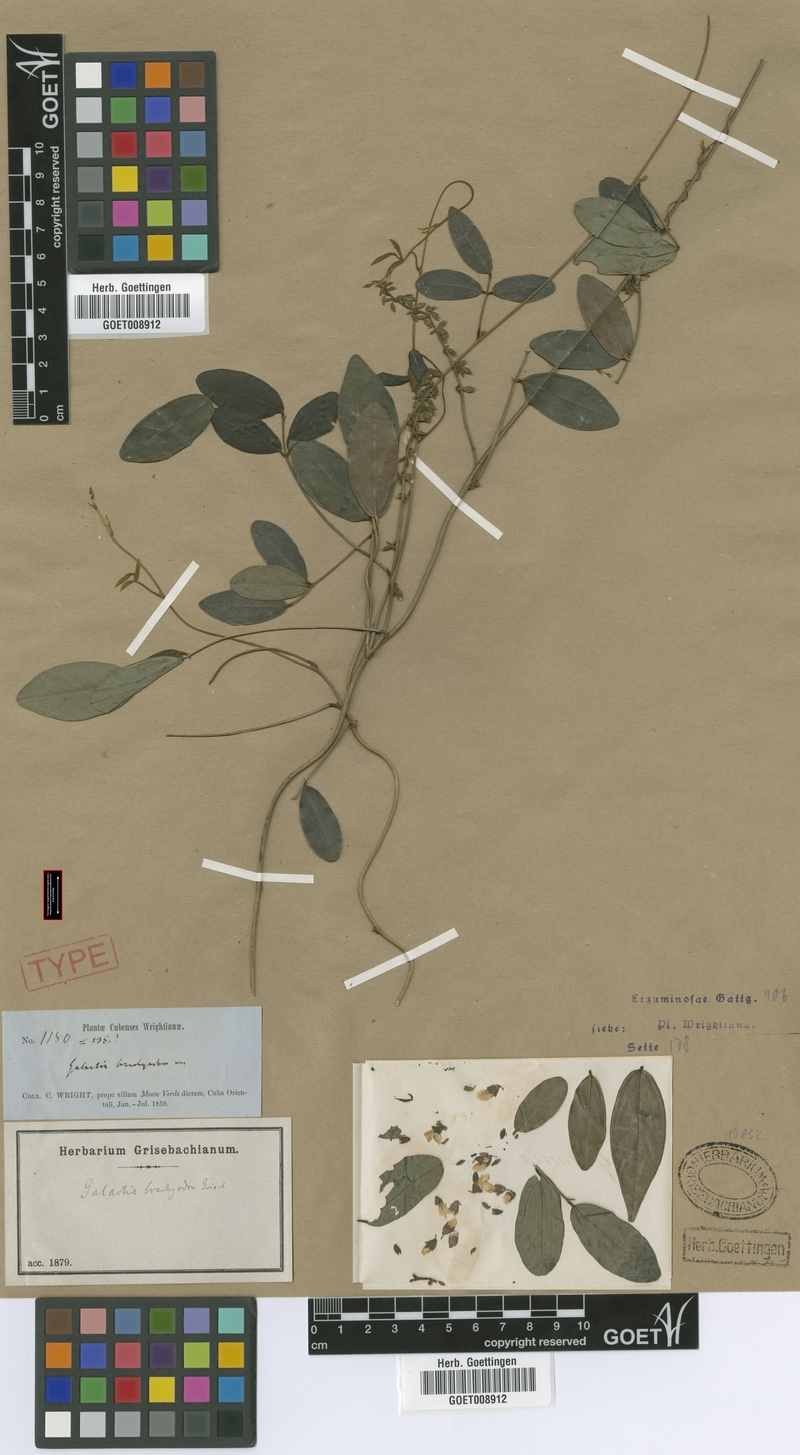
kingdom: Plantae
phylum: Tracheophyta
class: Magnoliopsida
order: Fabales
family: Fabaceae
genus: Galactia
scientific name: Galactia brachyodon
